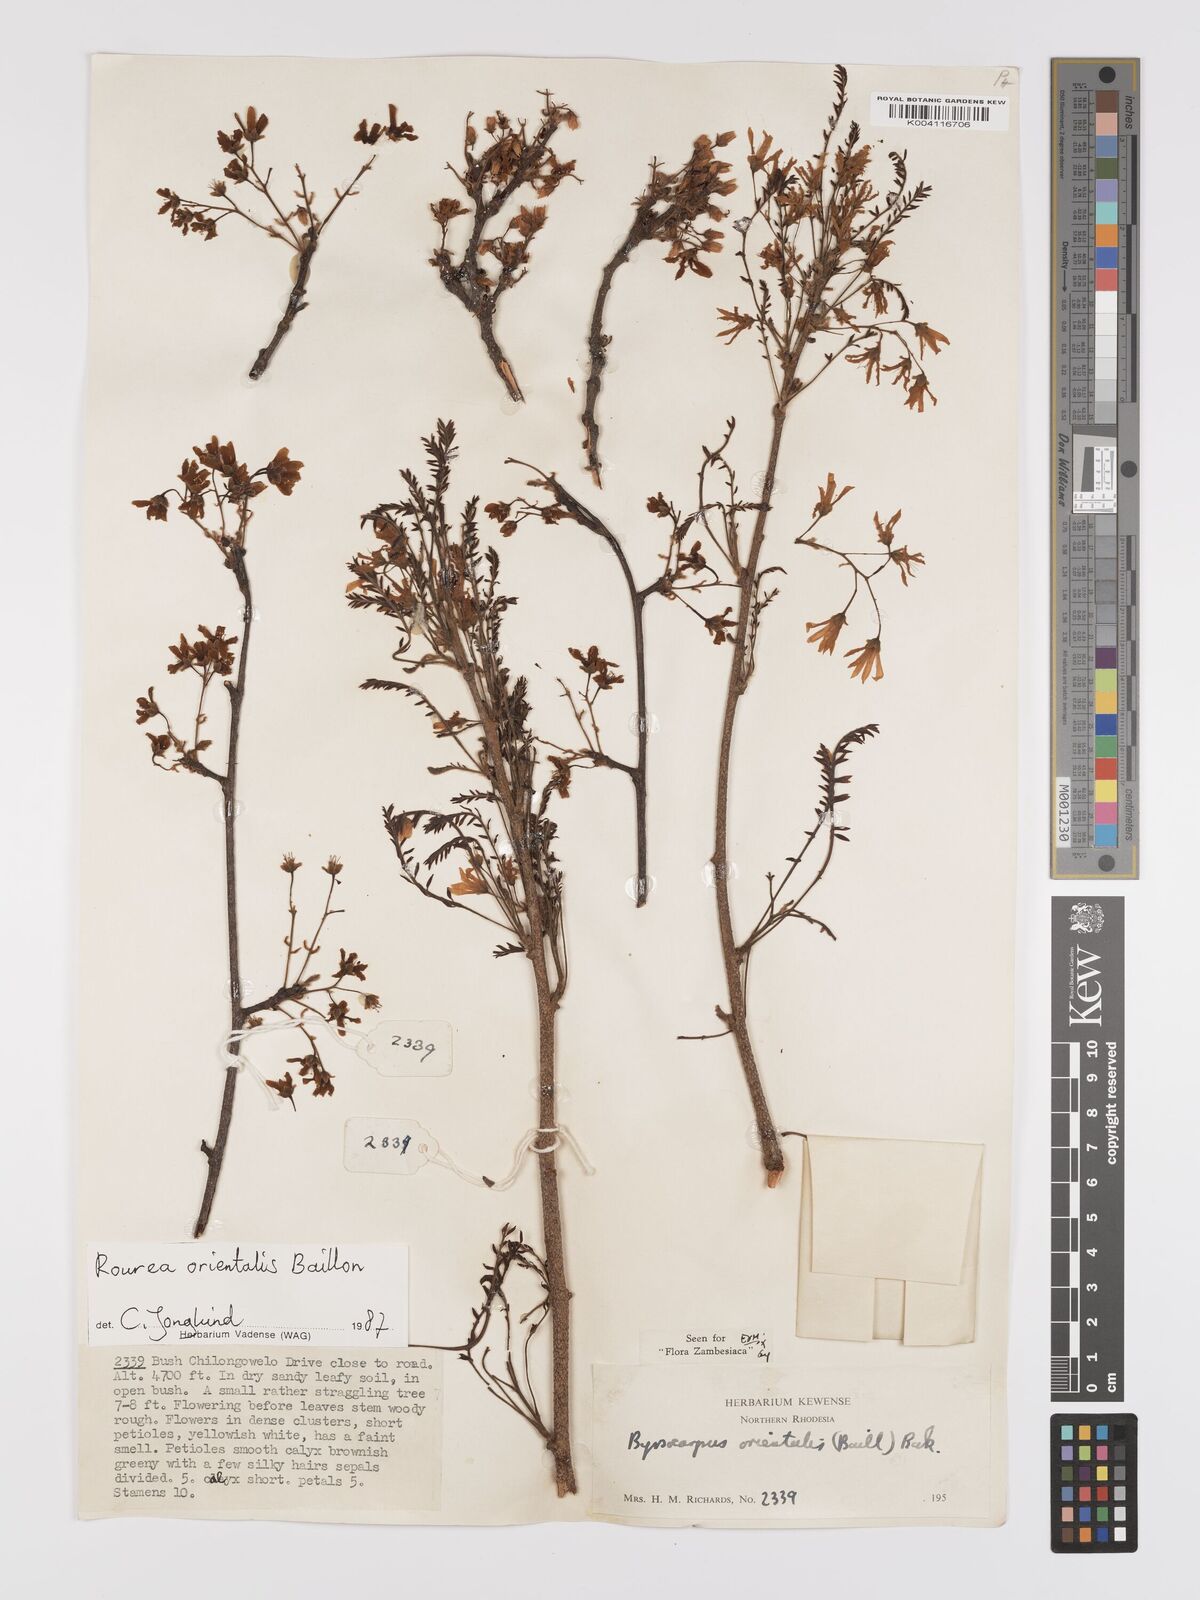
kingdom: Plantae
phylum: Tracheophyta
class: Magnoliopsida
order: Oxalidales
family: Connaraceae
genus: Rourea
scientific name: Rourea orientalis
